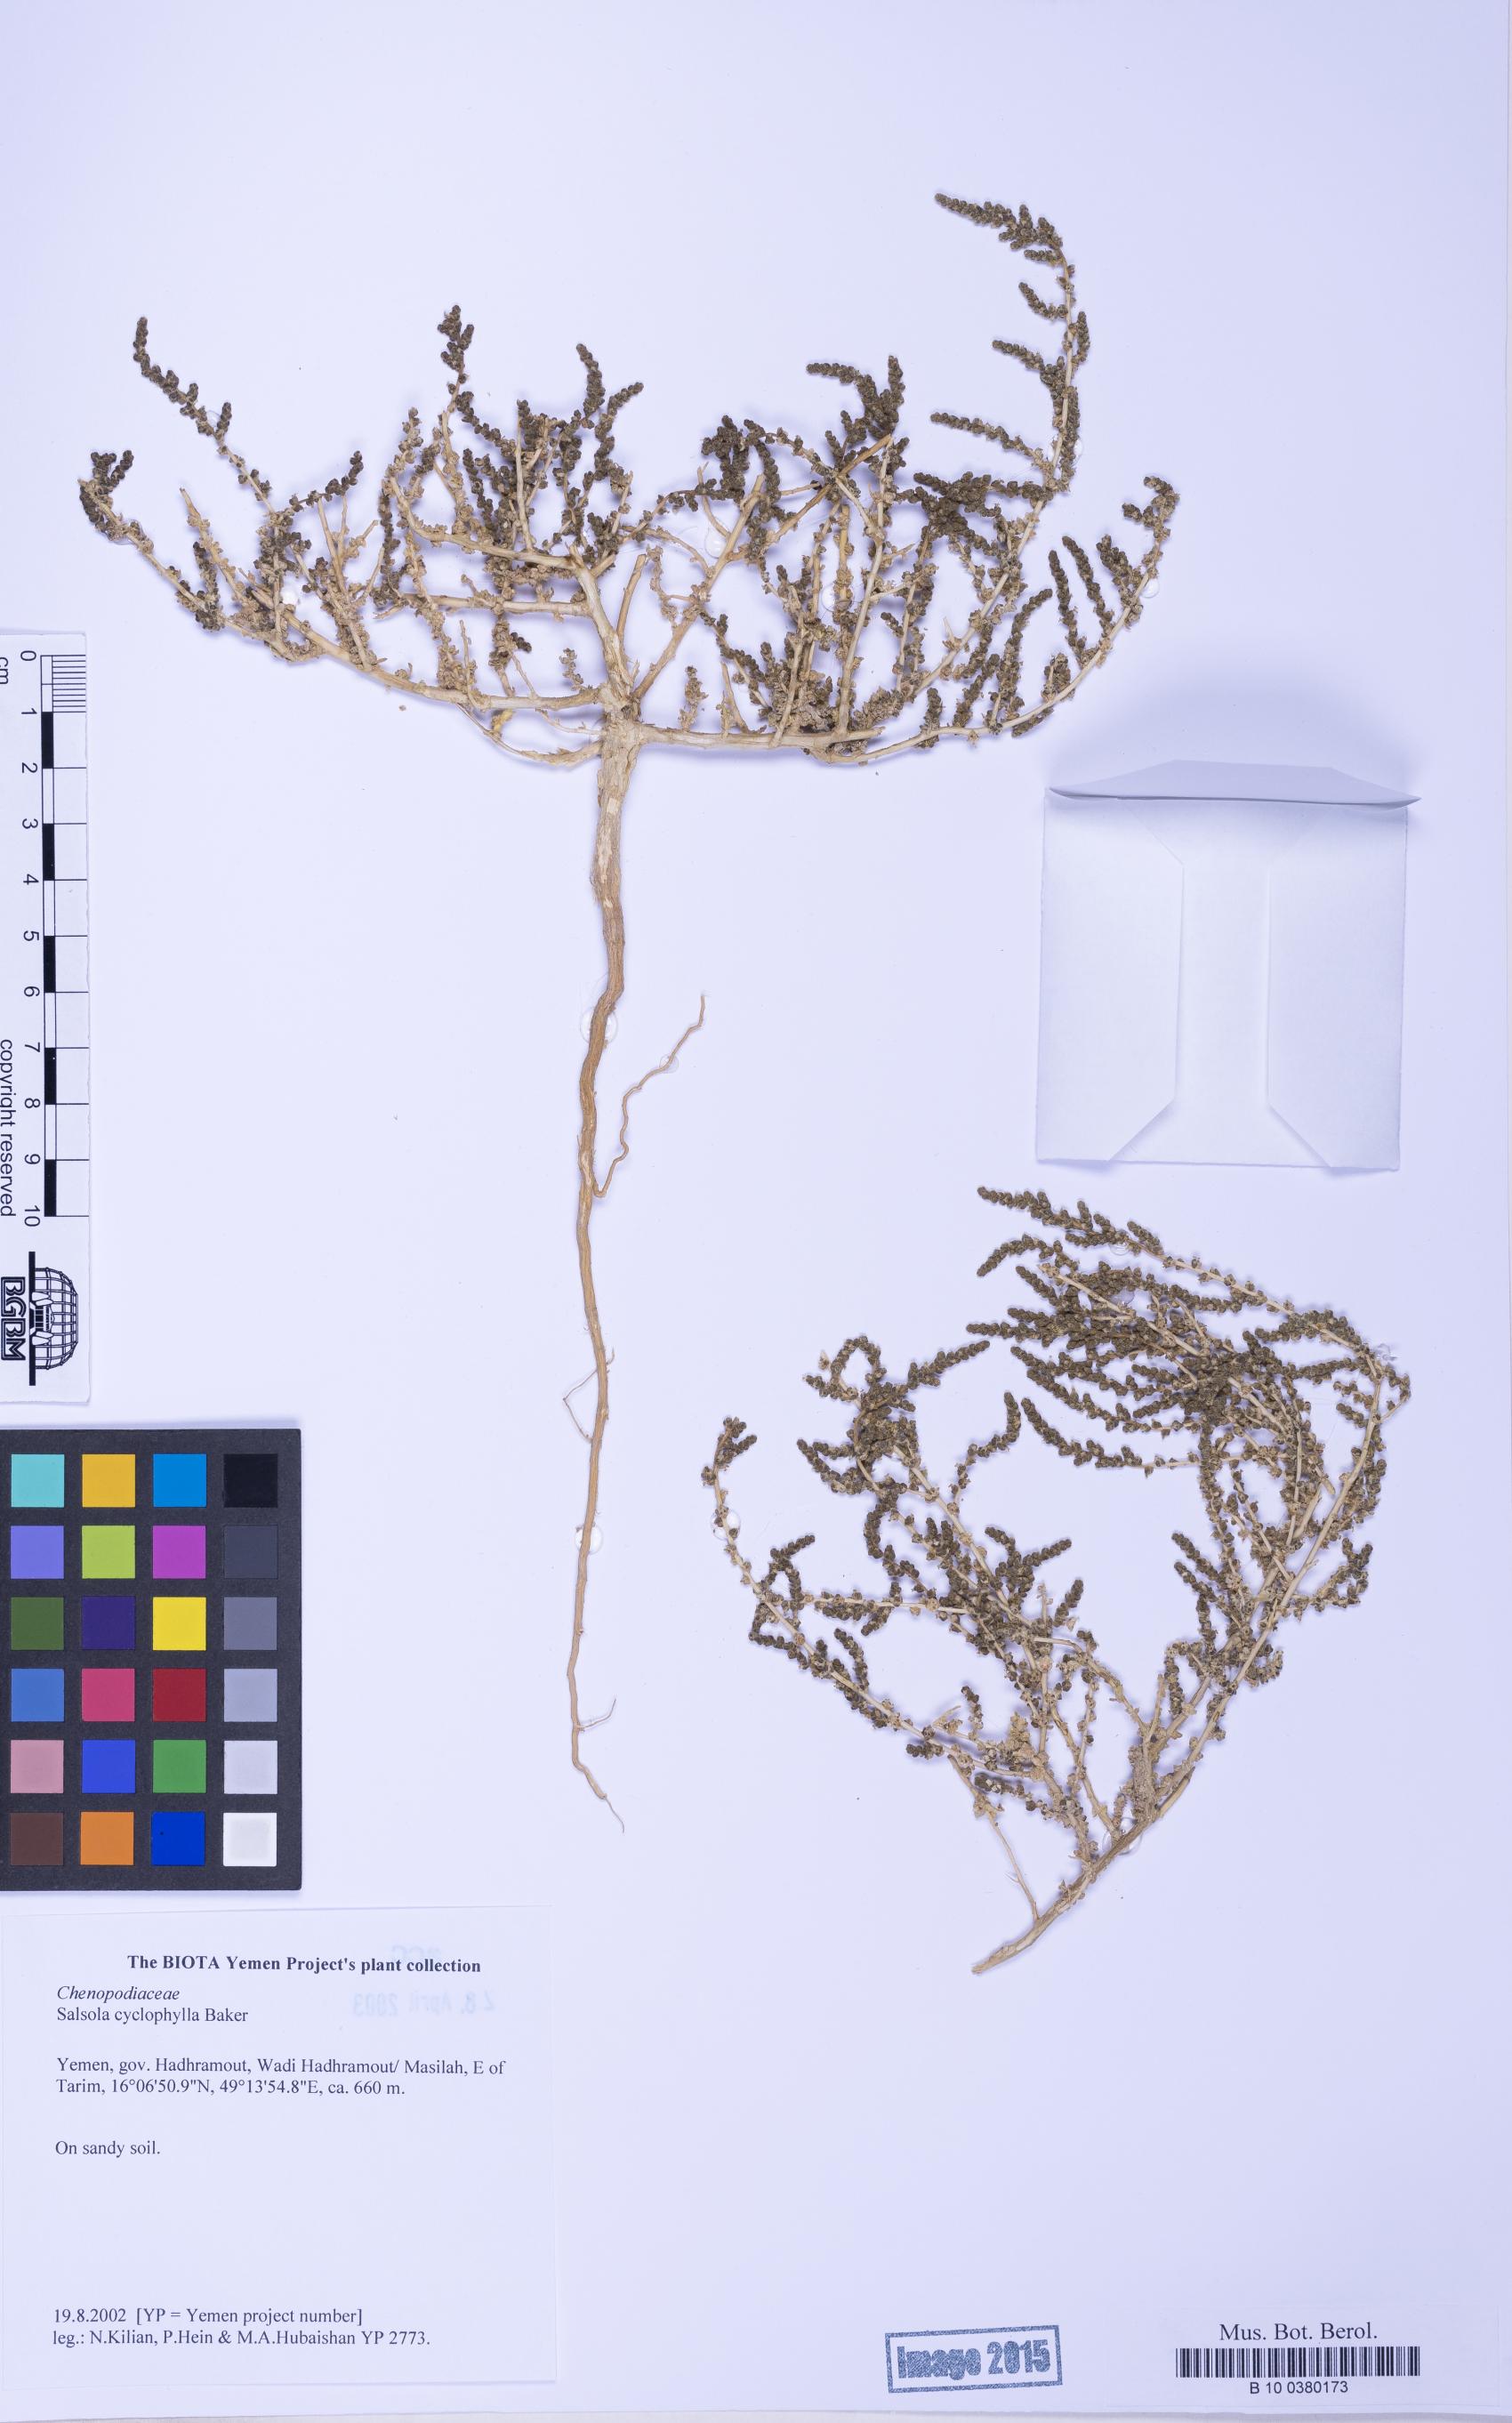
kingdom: Plantae
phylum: Tracheophyta
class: Magnoliopsida
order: Caryophyllales
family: Amaranthaceae
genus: Caroxylon
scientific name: Caroxylon cyclophyllum
